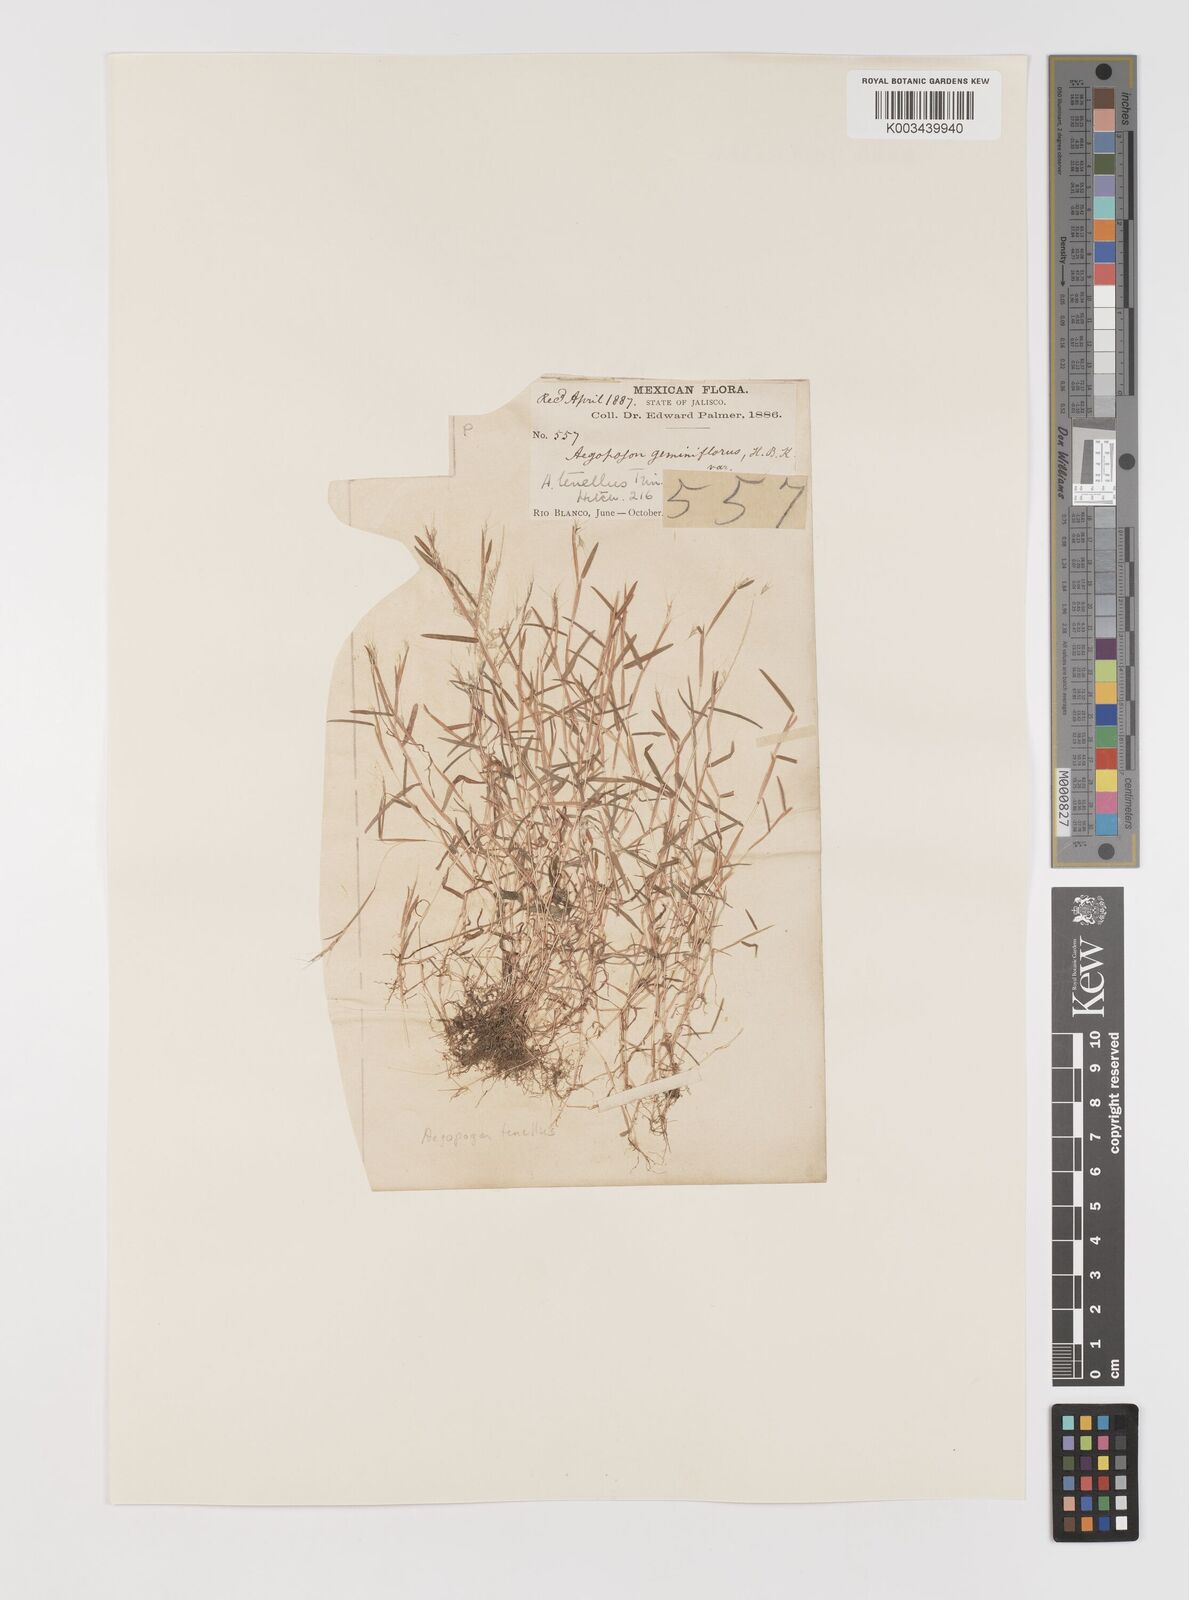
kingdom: Plantae
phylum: Tracheophyta
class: Liliopsida
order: Poales
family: Poaceae
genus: Muhlenbergia
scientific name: Muhlenbergia uniseta
